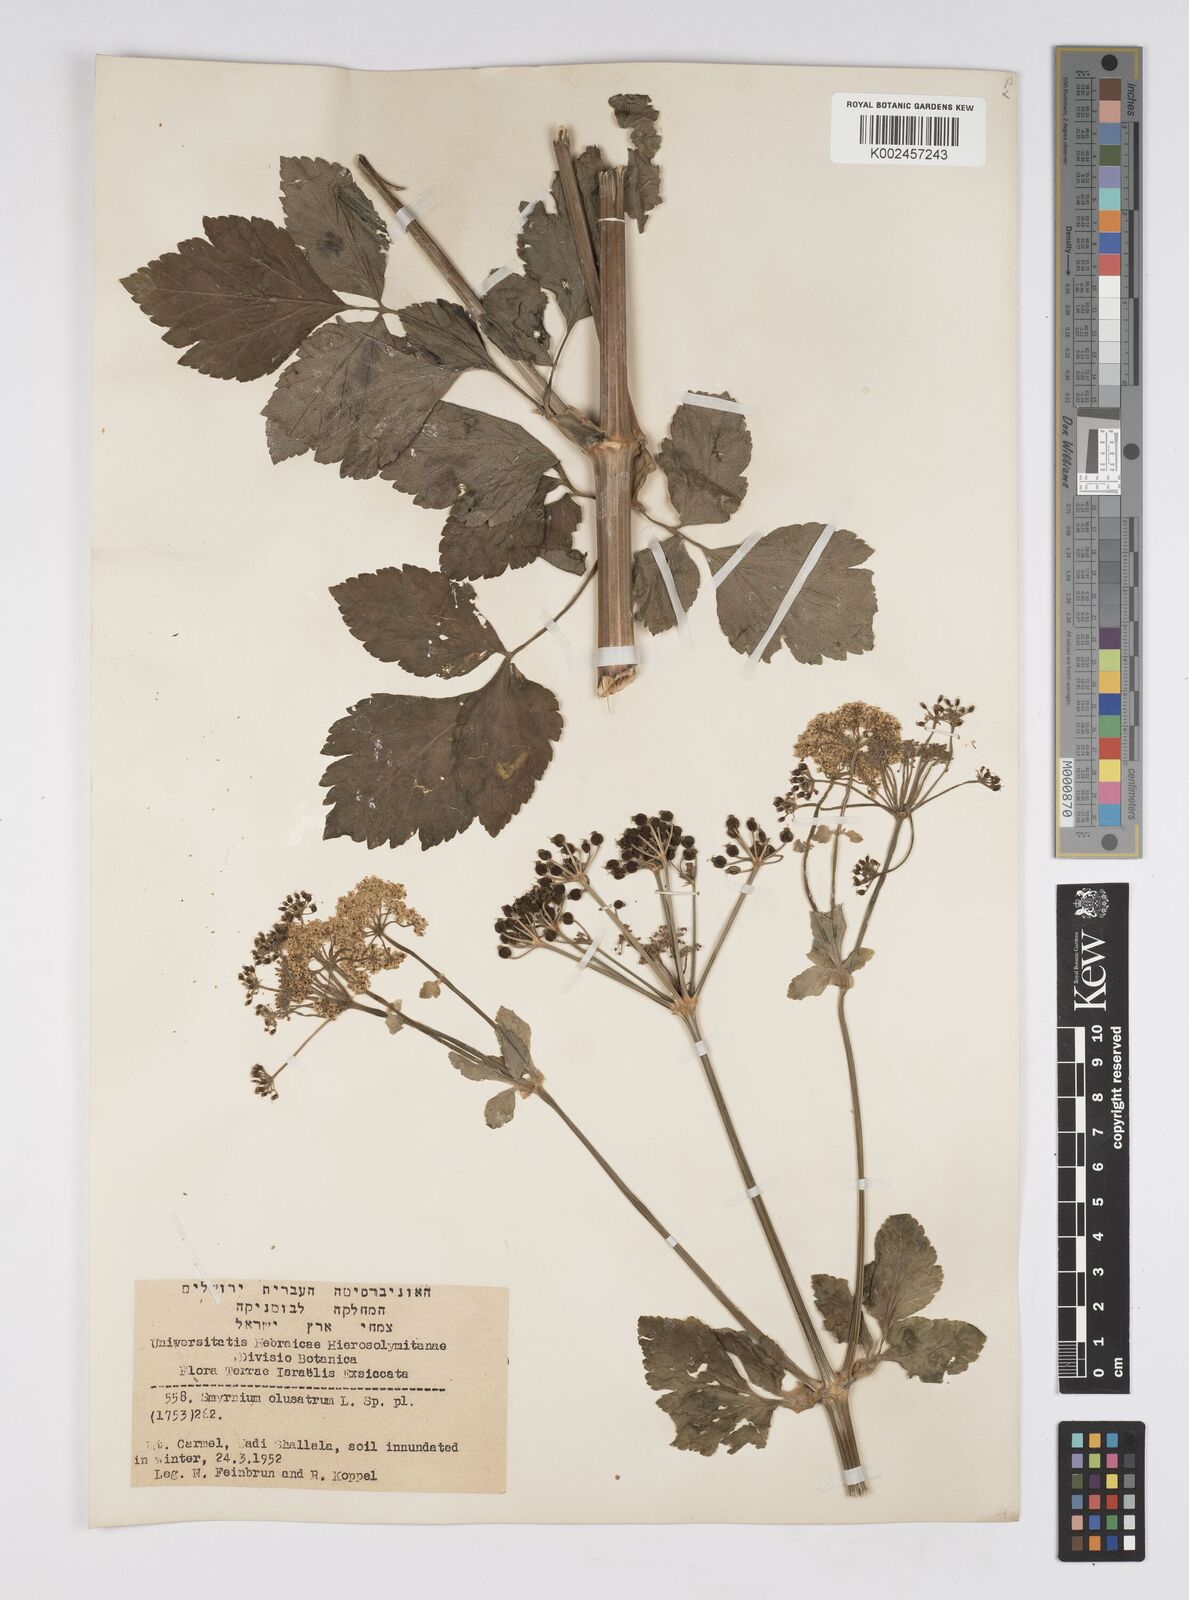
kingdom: Plantae
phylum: Tracheophyta
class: Magnoliopsida
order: Apiales
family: Apiaceae
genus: Smyrnium
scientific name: Smyrnium olusatrum
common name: Alexanders
